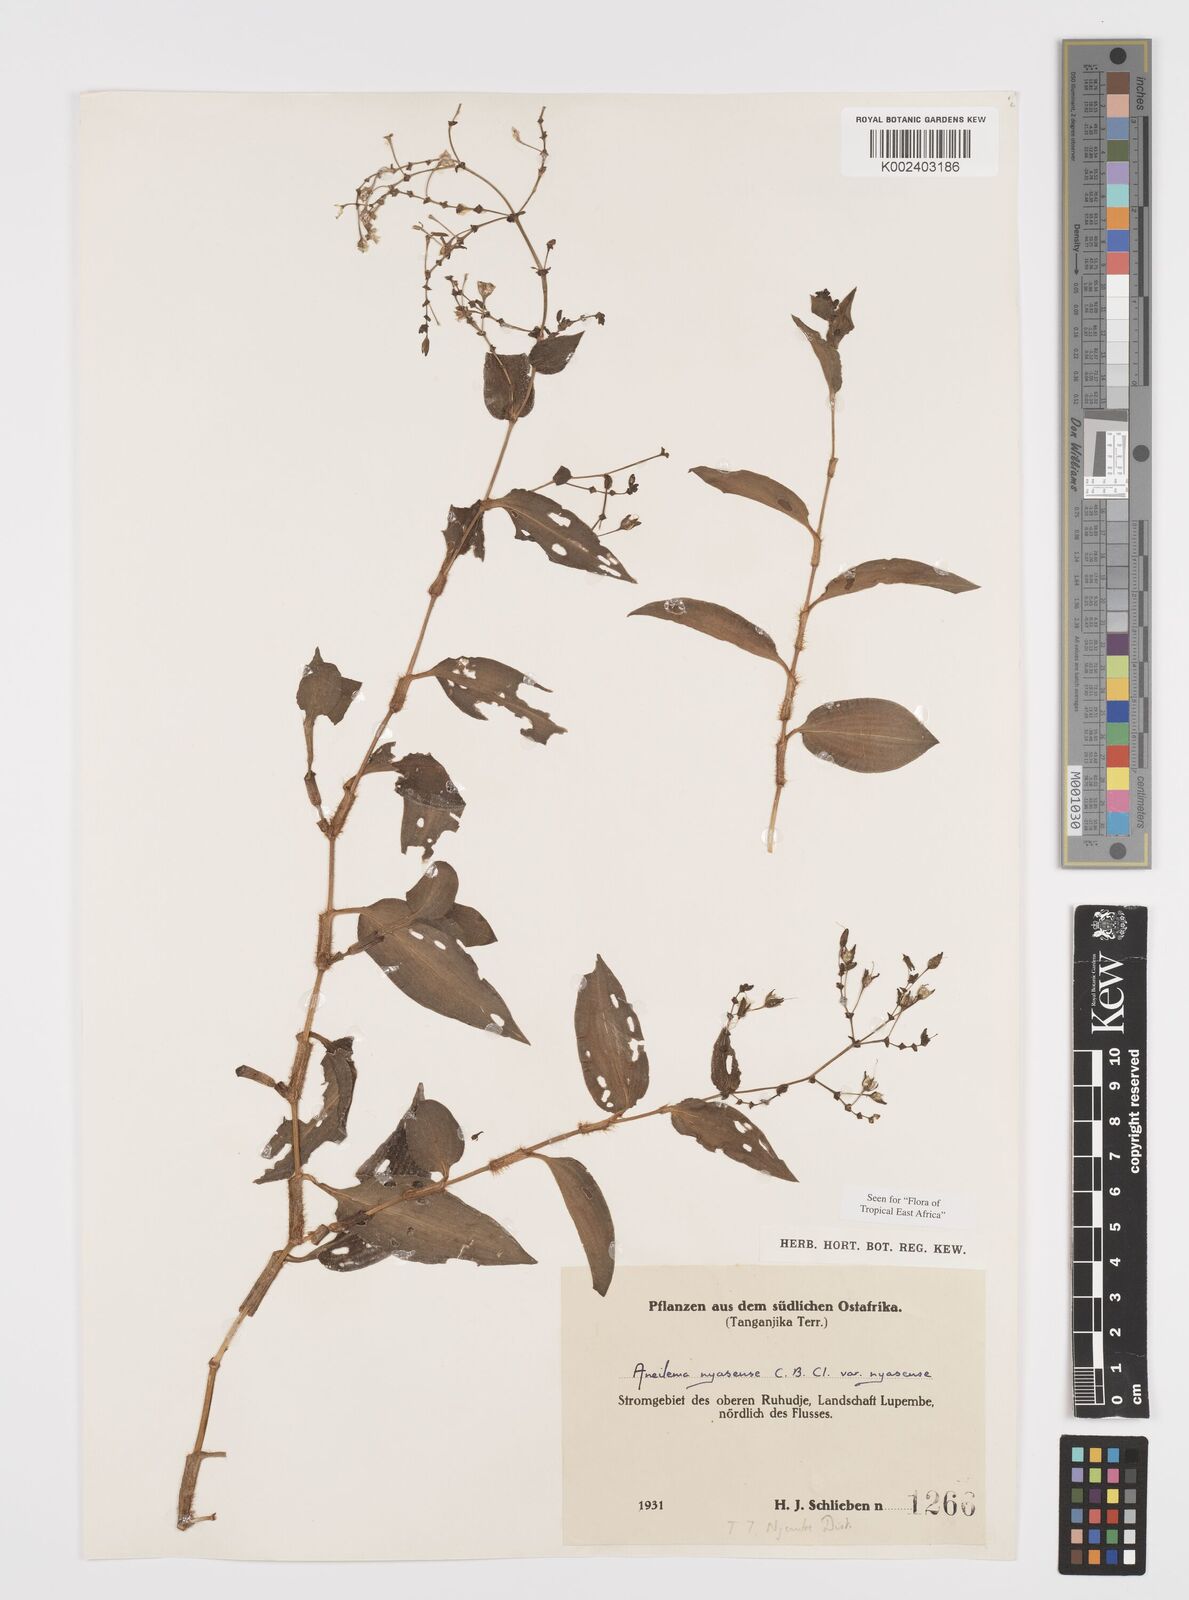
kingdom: Plantae
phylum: Tracheophyta
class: Liliopsida
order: Commelinales
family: Commelinaceae
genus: Aneilema
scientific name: Aneilema nyasense
